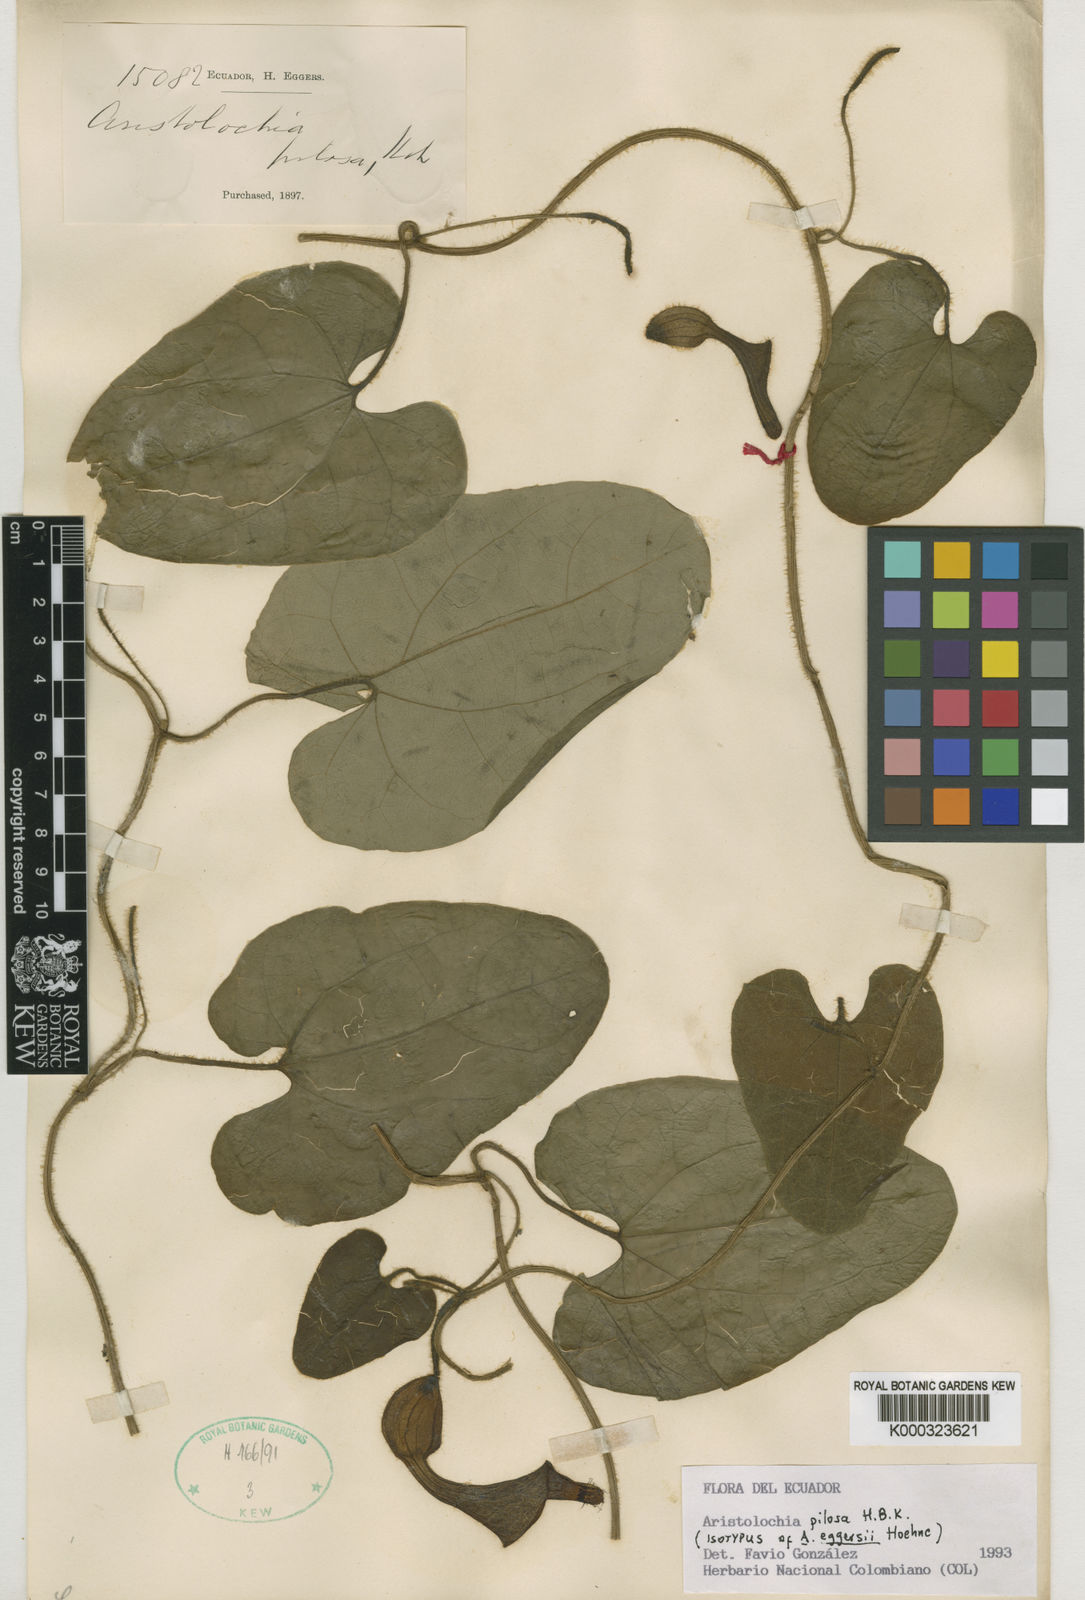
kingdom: Plantae
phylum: Tracheophyta
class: Magnoliopsida
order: Piperales
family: Aristolochiaceae
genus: Aristolochia
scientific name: Aristolochia
